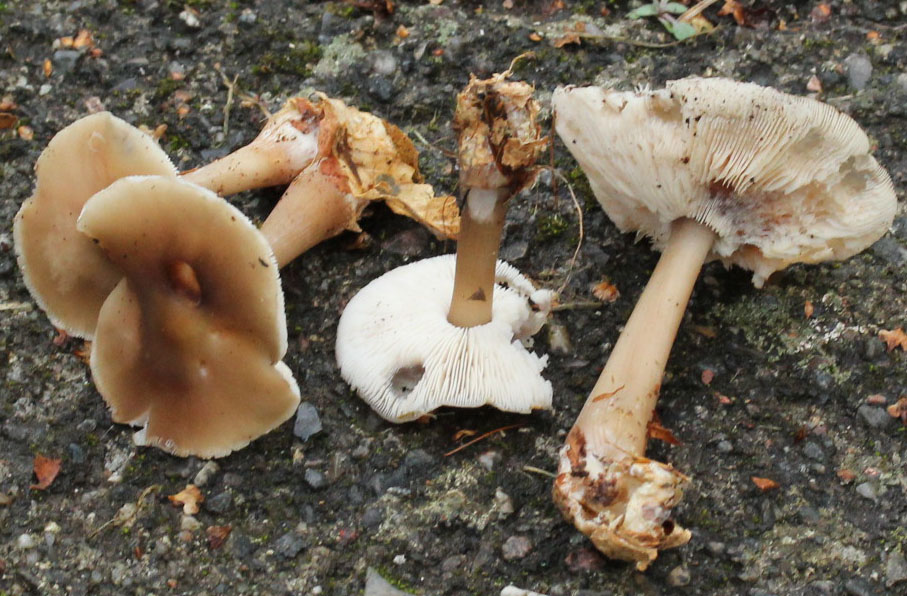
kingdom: Fungi
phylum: Basidiomycota
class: Agaricomycetes
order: Agaricales
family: Omphalotaceae
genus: Rhodocollybia
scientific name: Rhodocollybia asema
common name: horngrå fladhat
